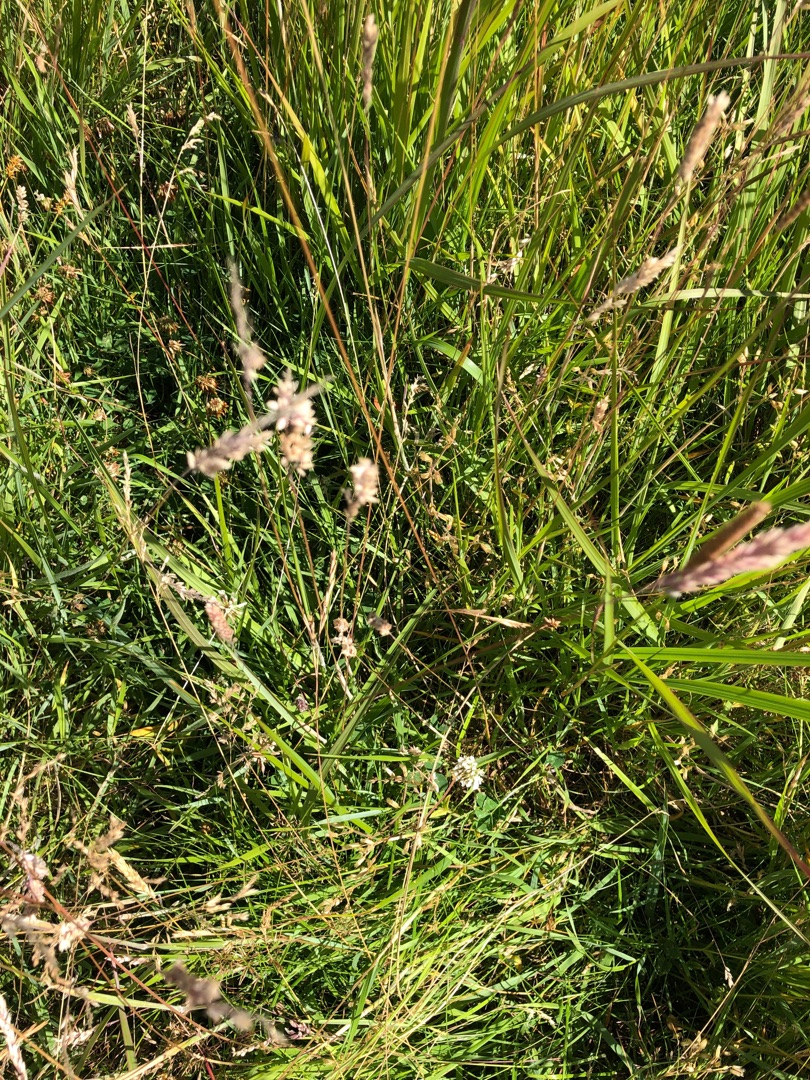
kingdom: Plantae
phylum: Tracheophyta
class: Magnoliopsida
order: Fabales
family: Fabaceae
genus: Trifolium
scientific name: Trifolium repens
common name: Hvid-kløver
